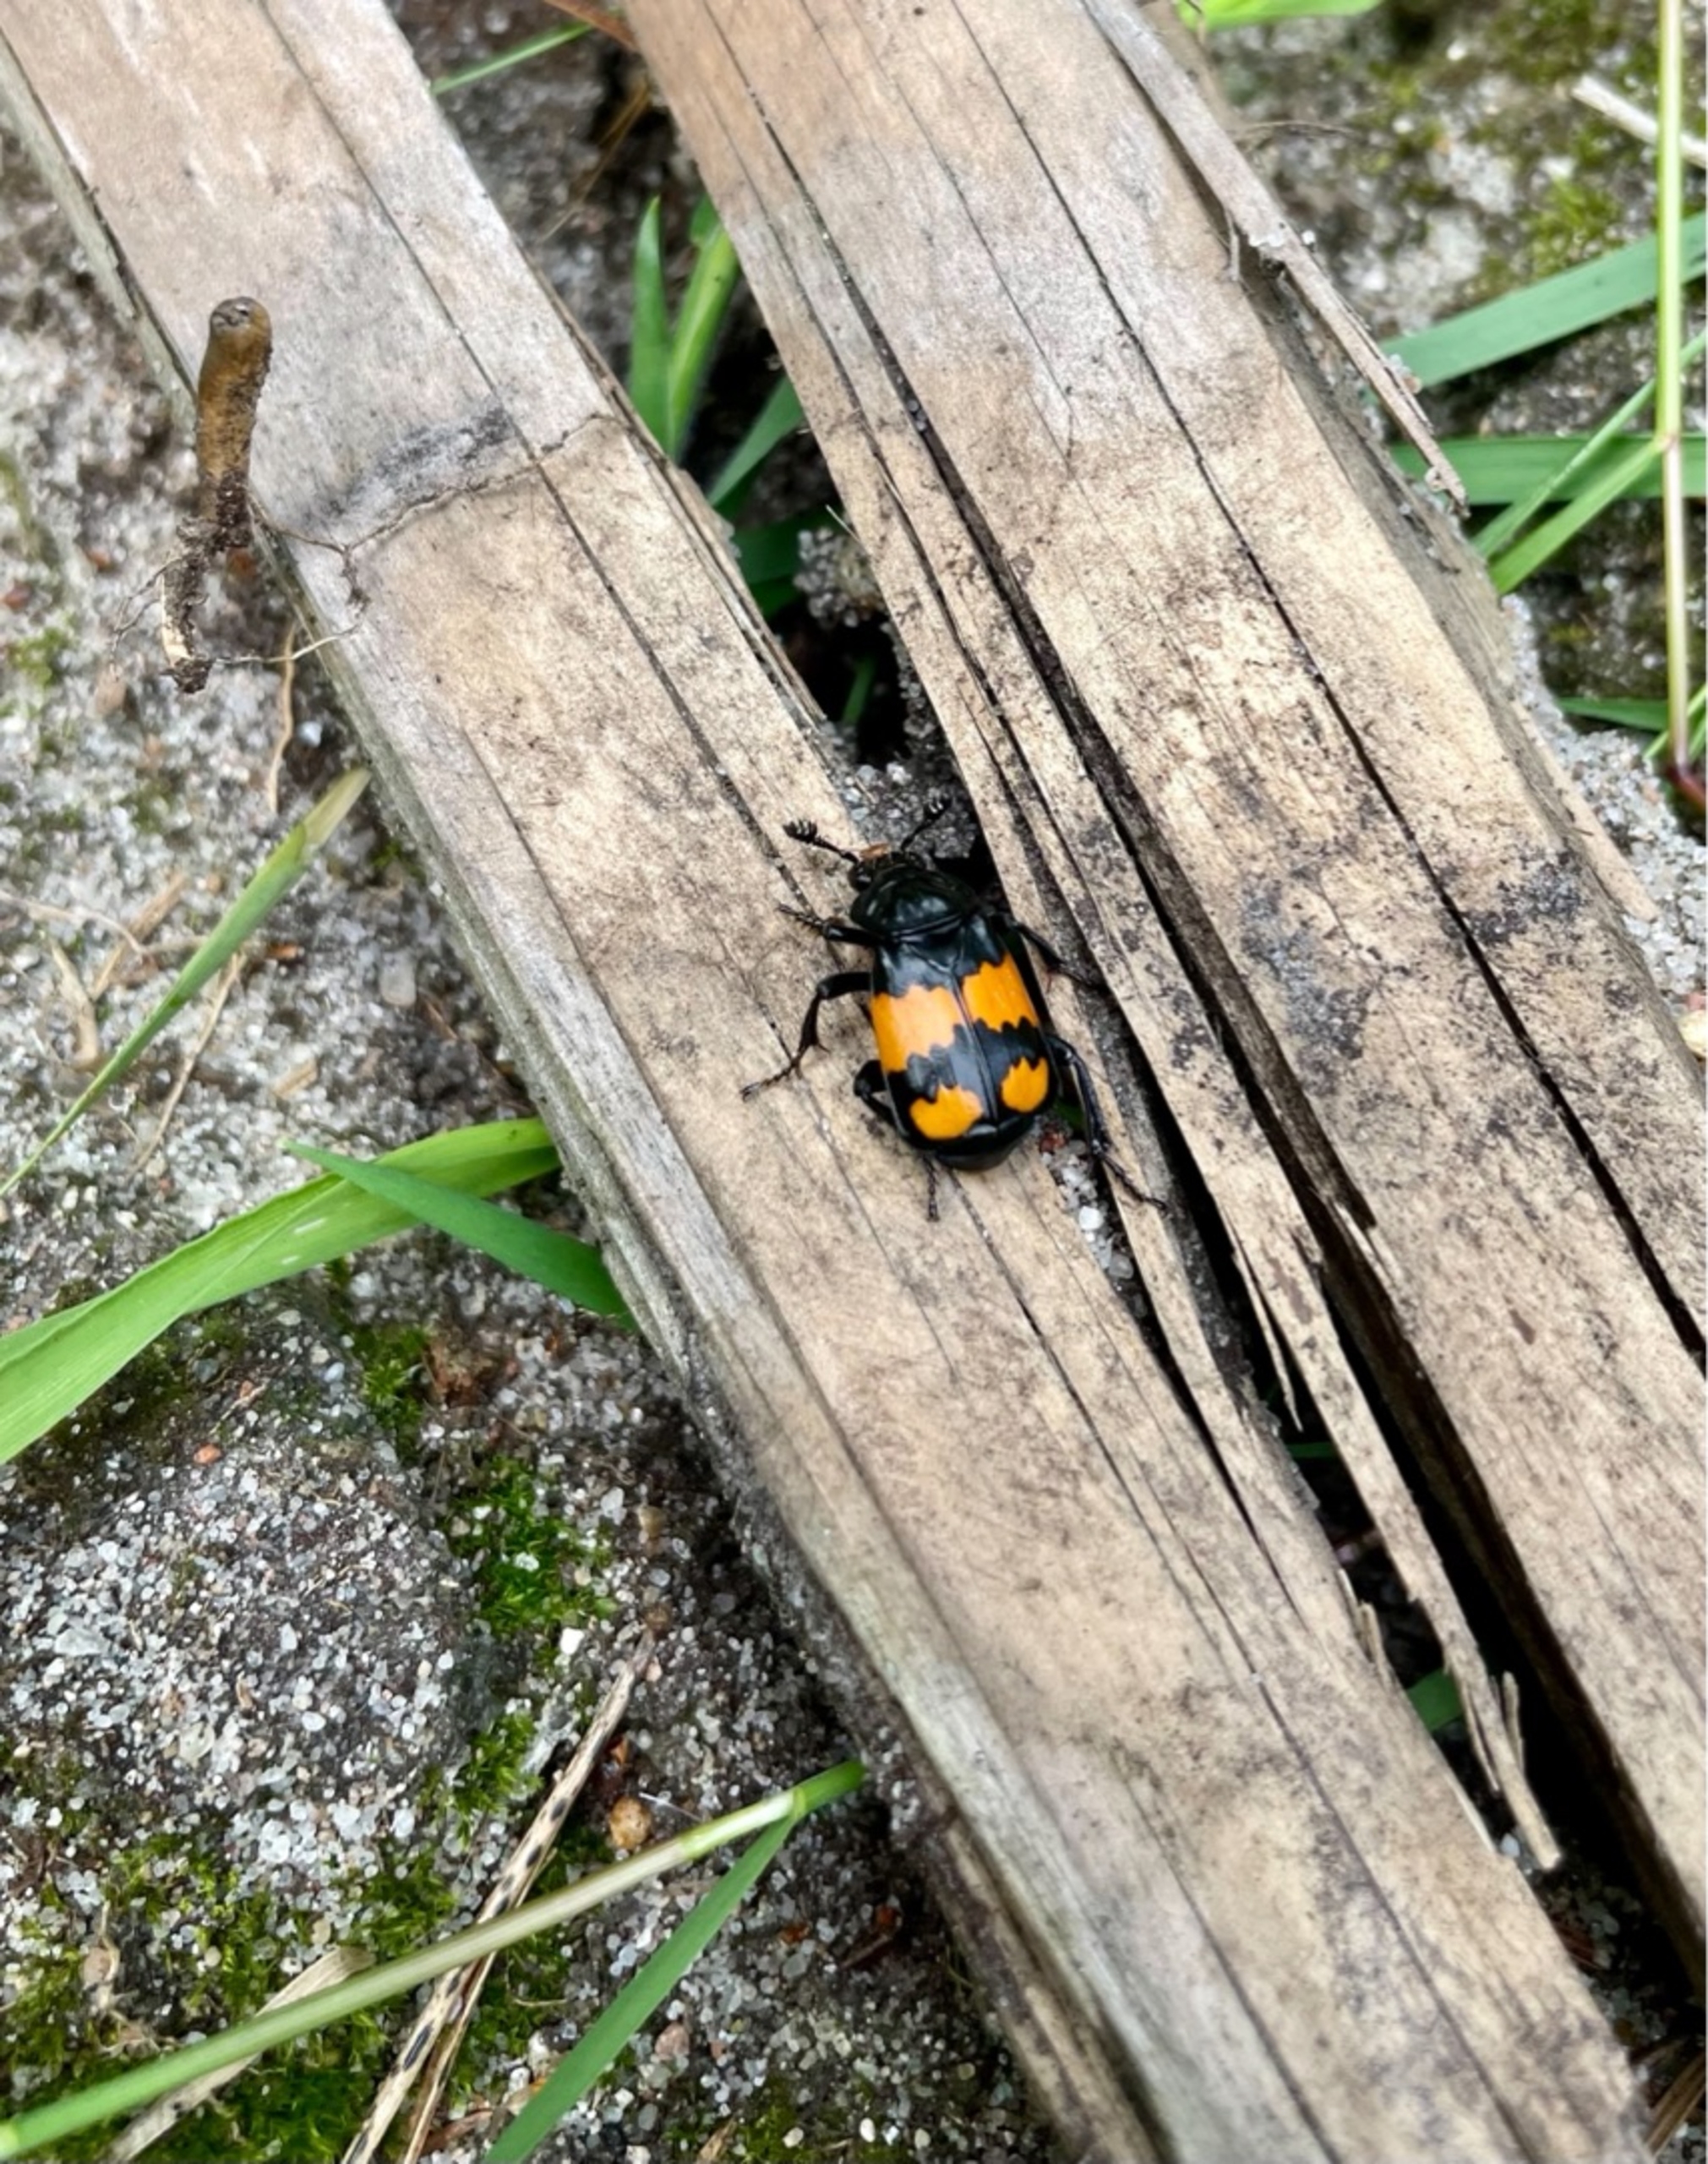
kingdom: Animalia
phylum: Arthropoda
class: Insecta
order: Coleoptera
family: Staphylinidae
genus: Nicrophorus
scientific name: Nicrophorus vespilloides
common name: Sortkøllet ådselgraver
